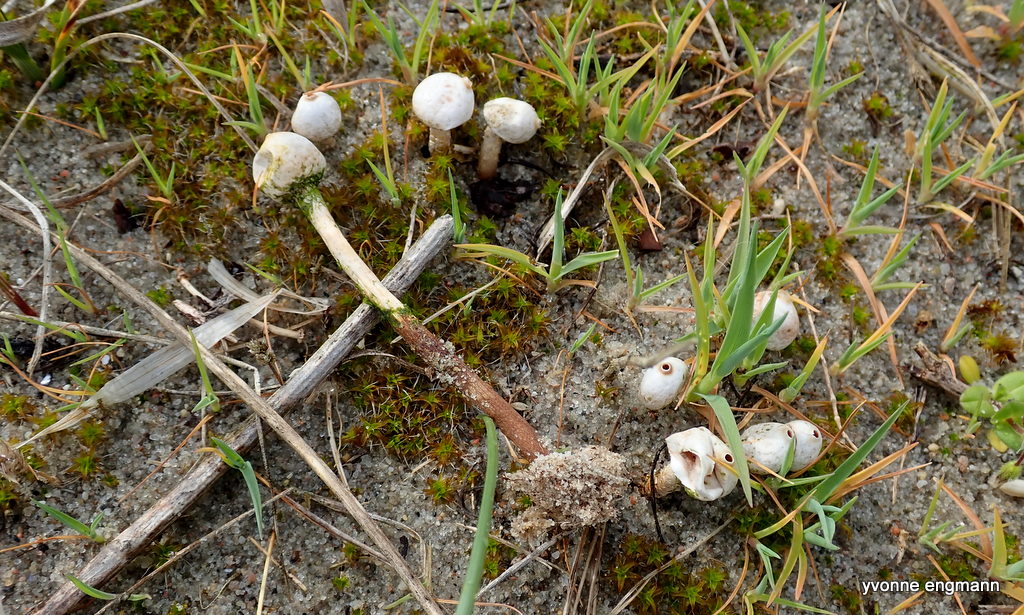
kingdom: Fungi
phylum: Basidiomycota
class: Agaricomycetes
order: Agaricales
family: Agaricaceae
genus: Tulostoma
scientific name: Tulostoma brumale
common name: vinter-stilkbovist
